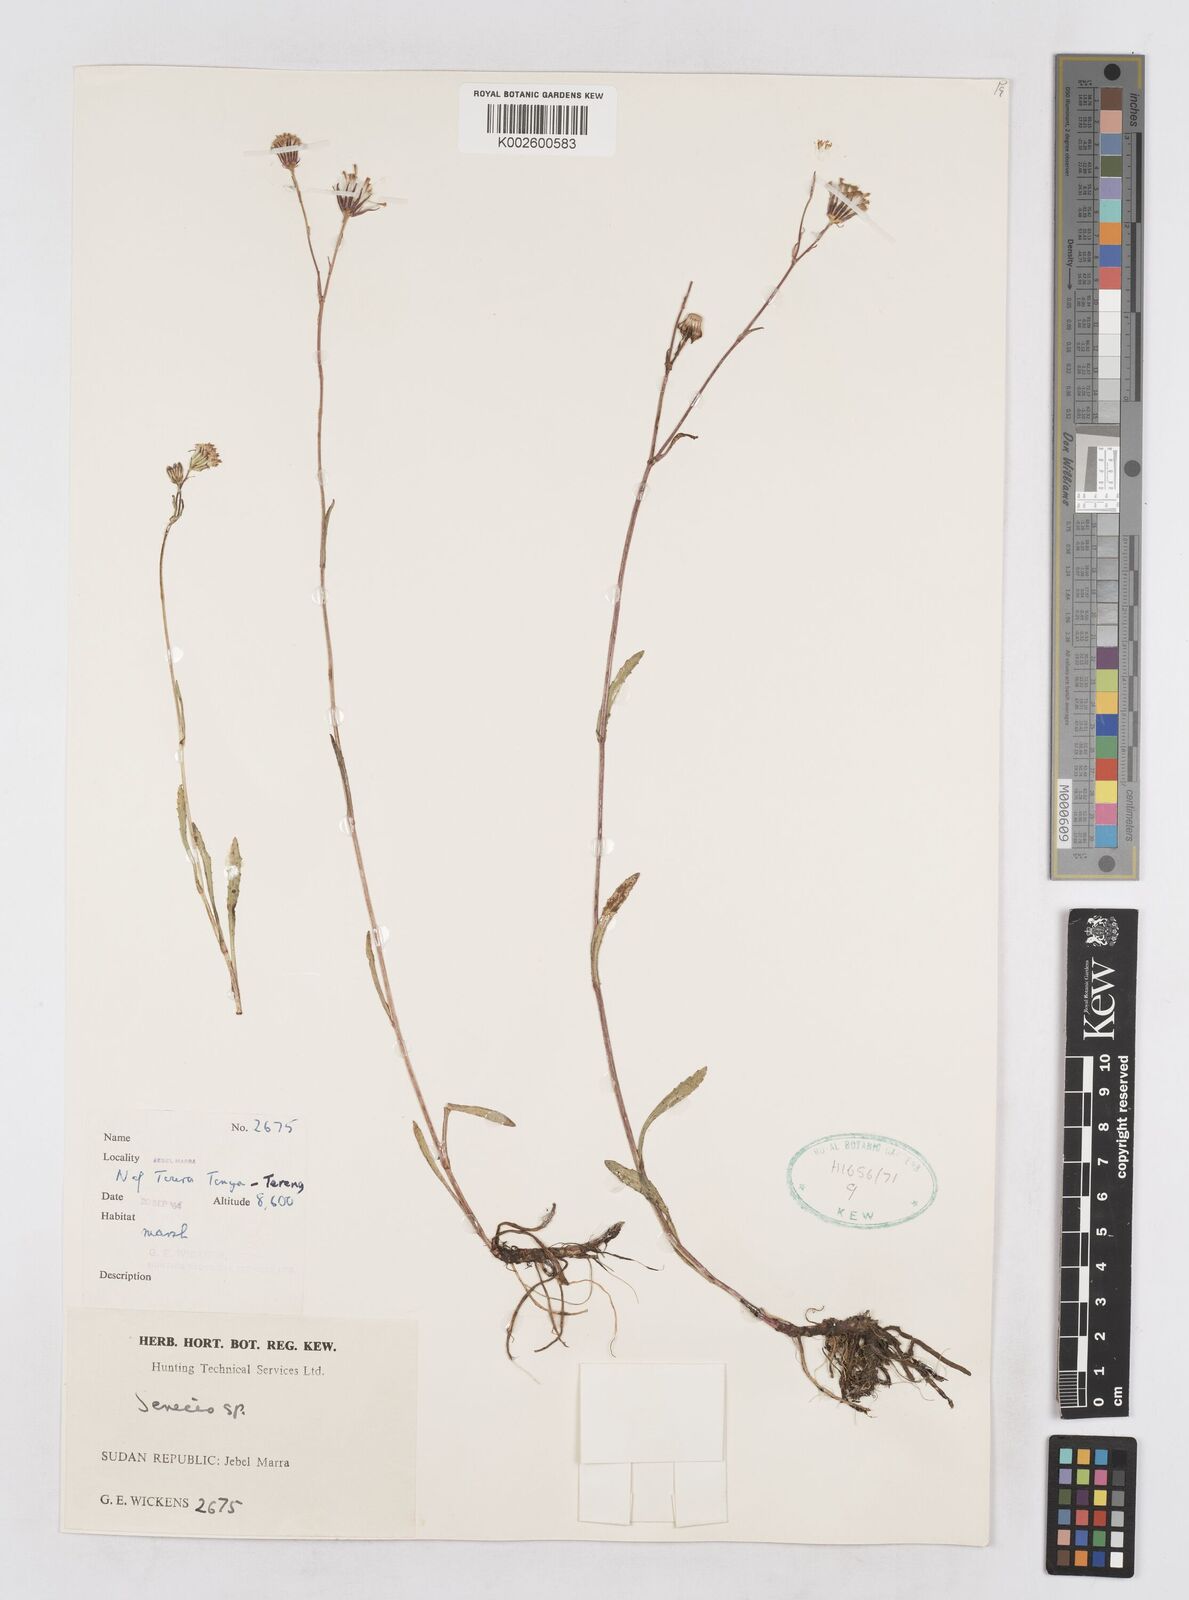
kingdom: Plantae
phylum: Tracheophyta
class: Magnoliopsida
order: Asterales
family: Asteraceae
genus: Senecio
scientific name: Senecio hochstetteri
